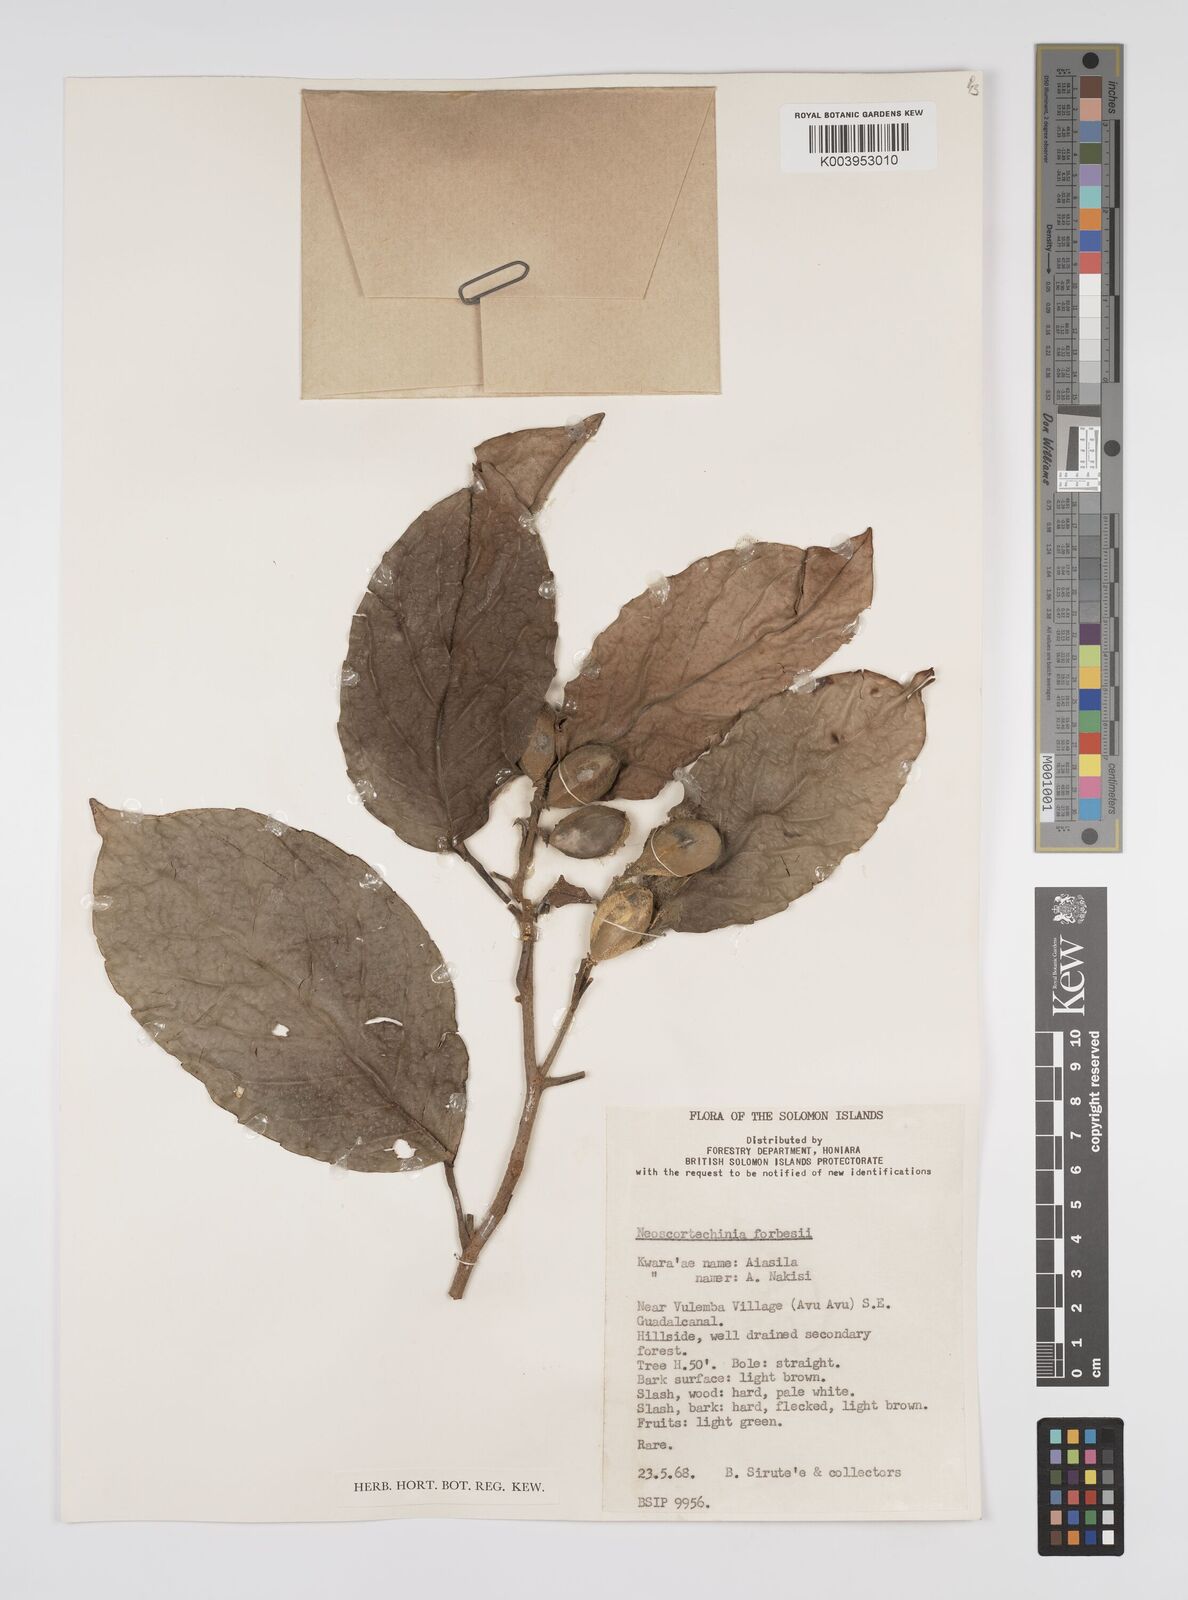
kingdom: Plantae
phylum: Tracheophyta
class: Magnoliopsida
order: Malpighiales
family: Euphorbiaceae
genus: Neoscortechinia
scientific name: Neoscortechinia forbesii
